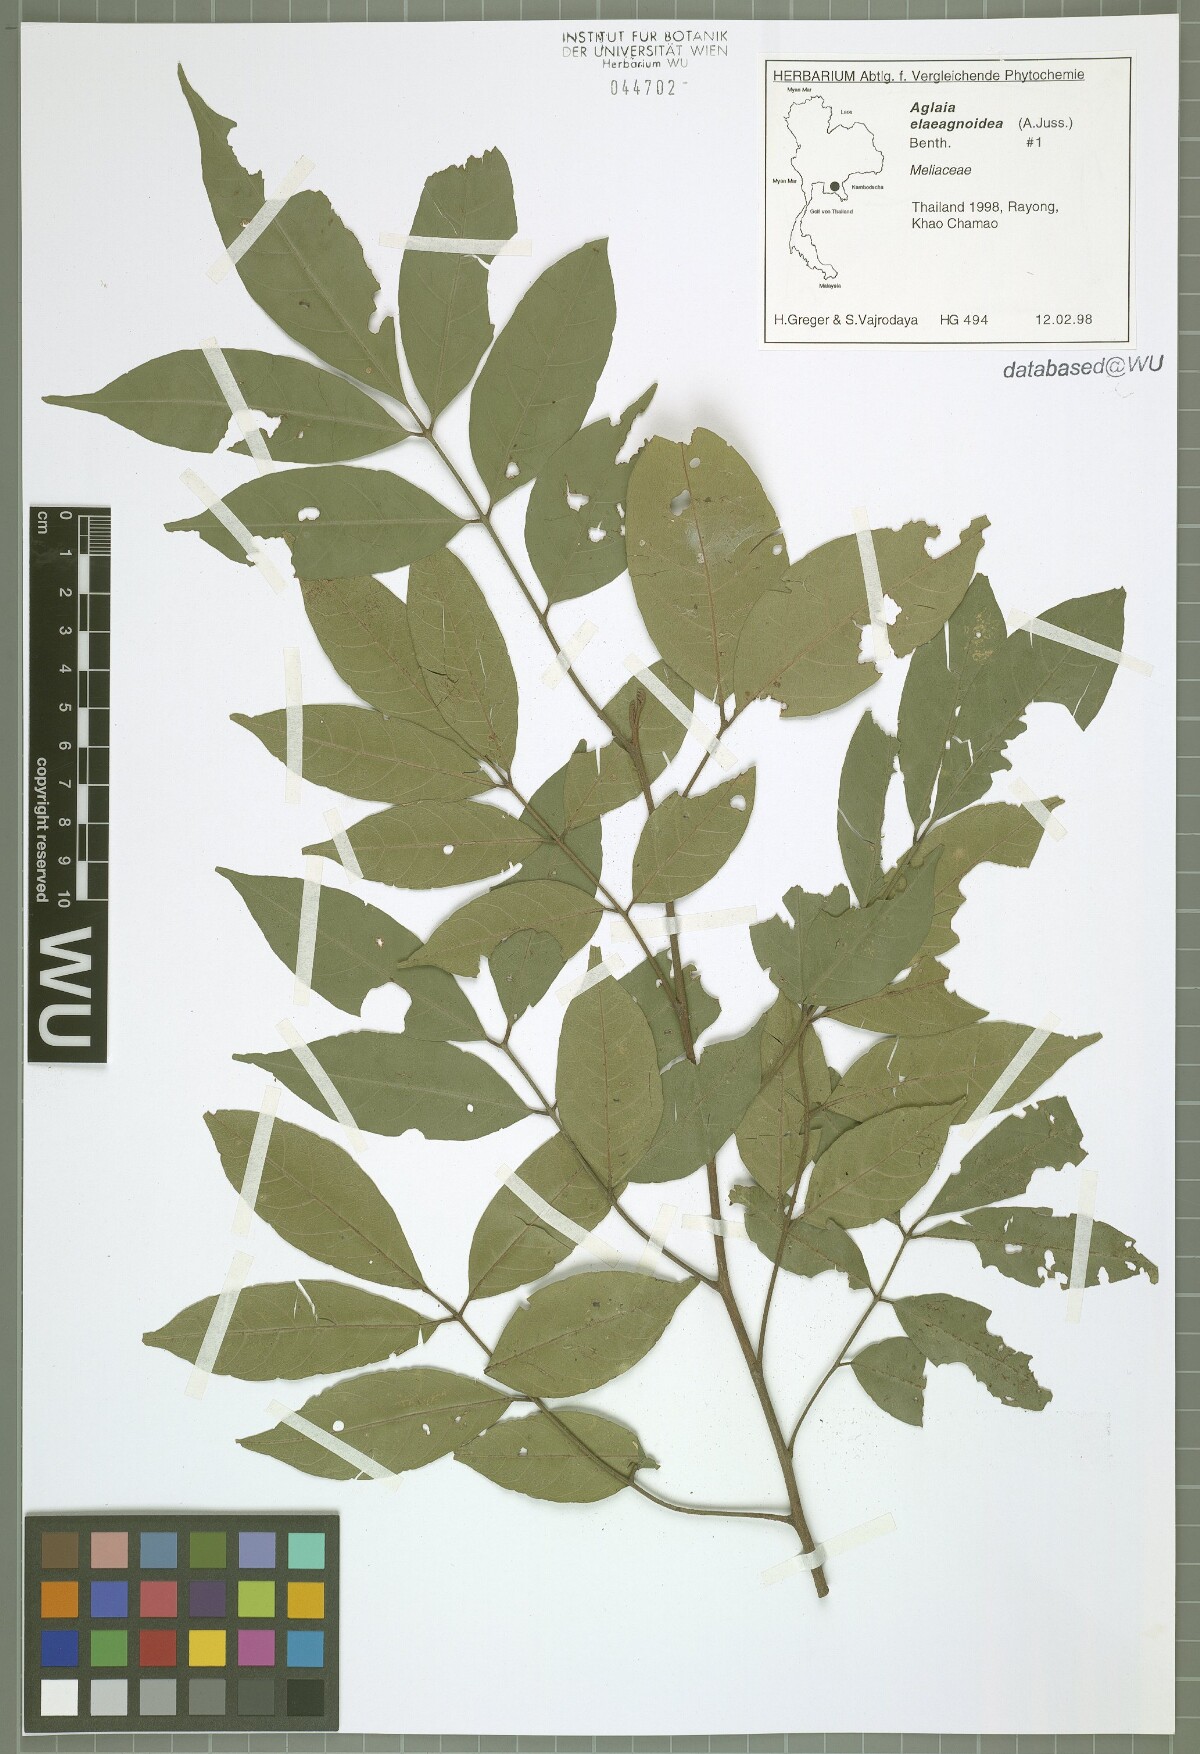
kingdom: Plantae
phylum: Tracheophyta
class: Magnoliopsida
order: Sapindales
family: Meliaceae
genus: Aglaia
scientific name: Aglaia elaeagnoidea
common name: Droopyleaf
